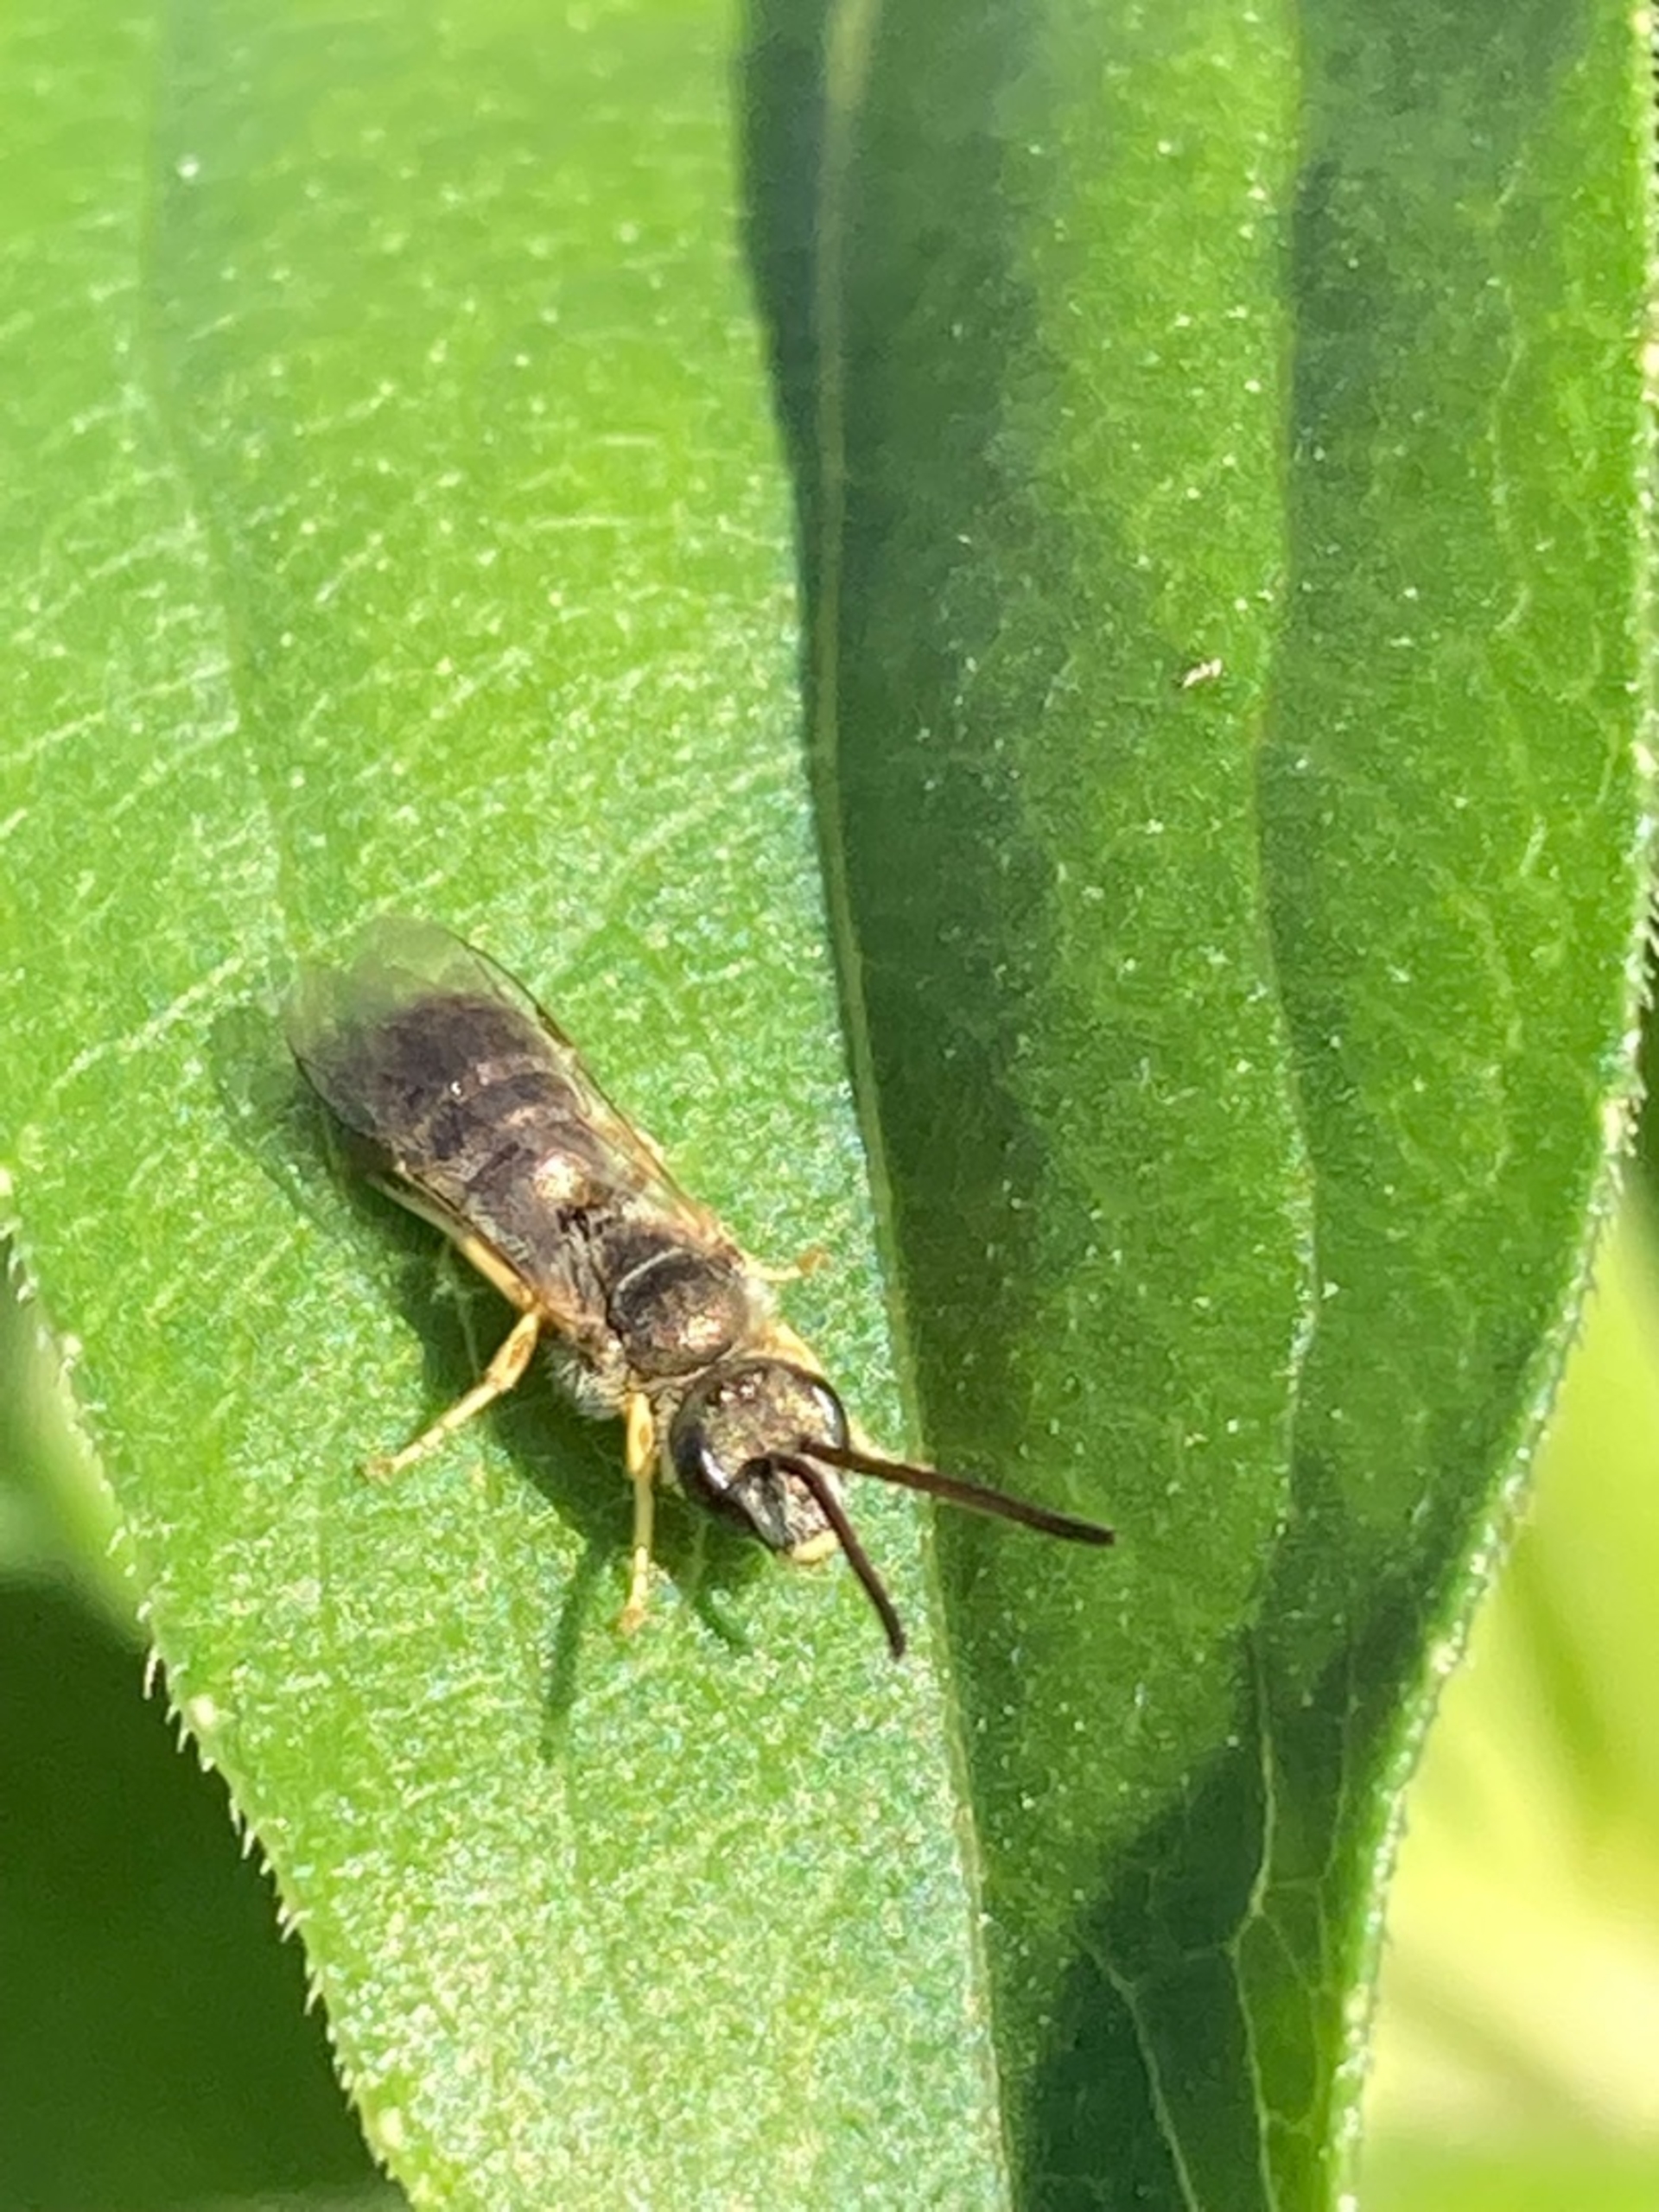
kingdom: Animalia
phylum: Arthropoda
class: Insecta
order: Hymenoptera
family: Halictidae
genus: Lasioglossum
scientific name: Lasioglossum
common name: Smalbier
